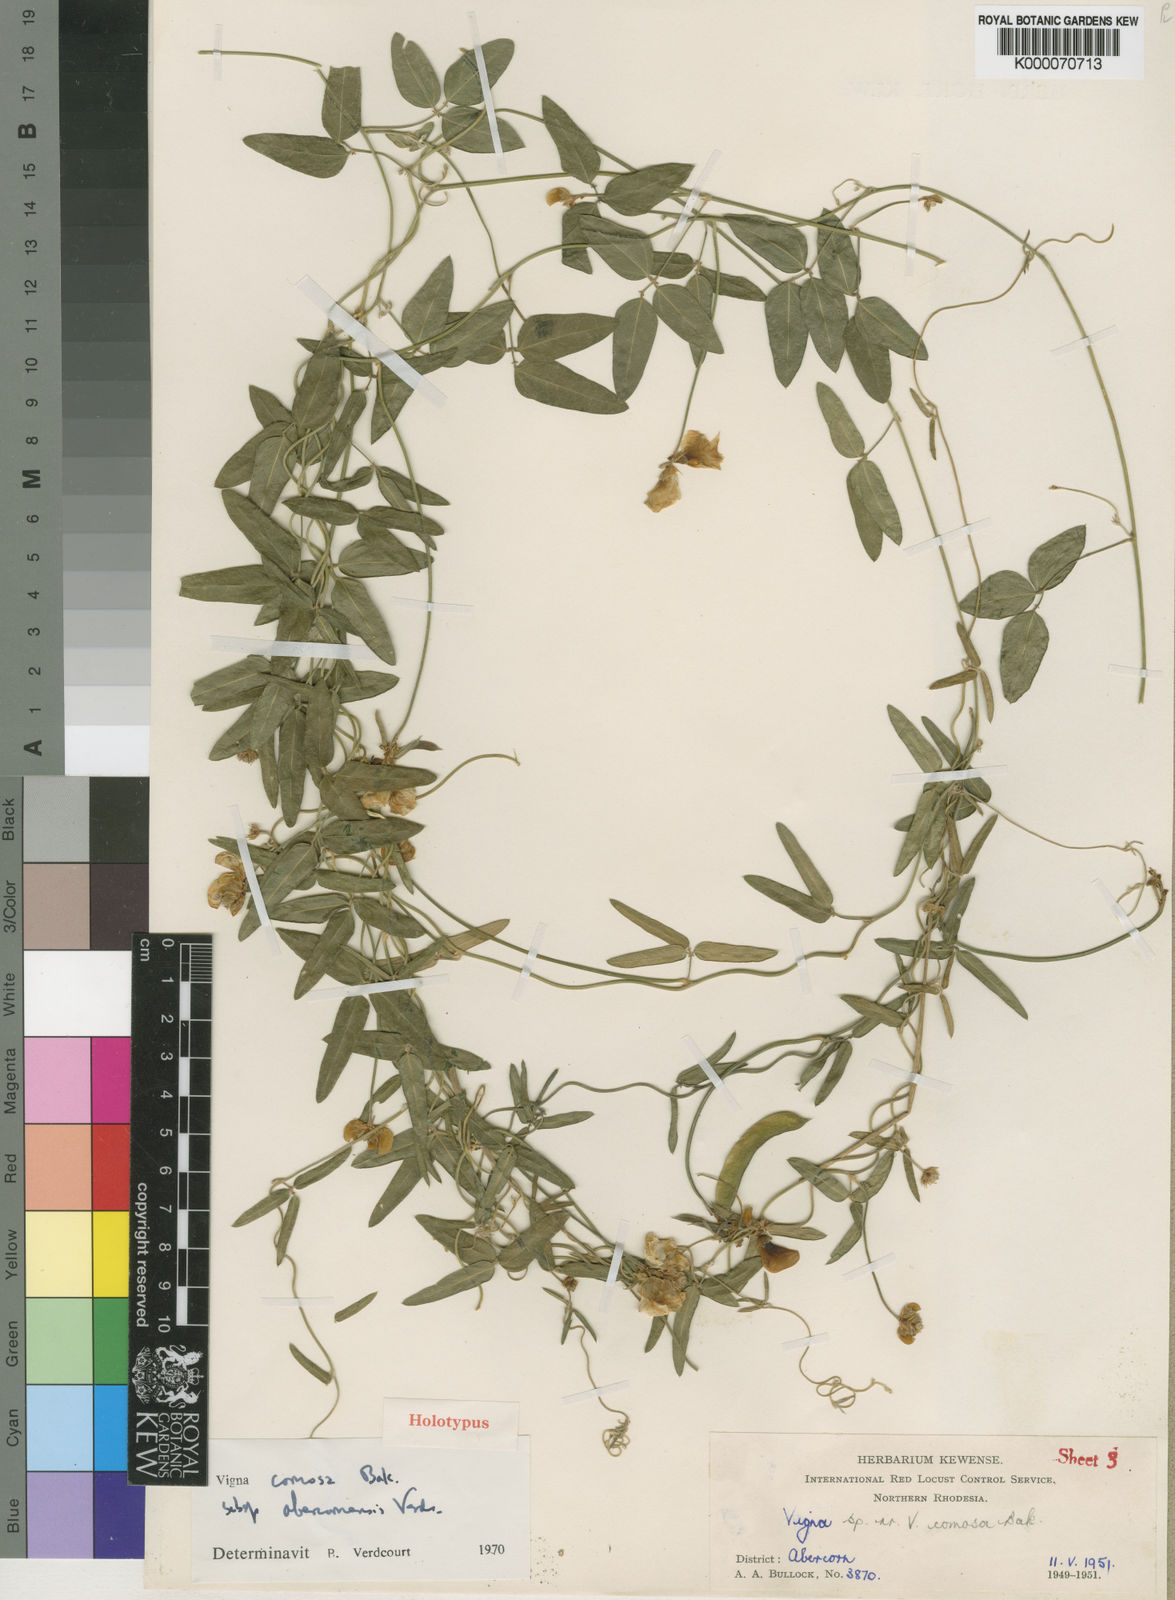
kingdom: Plantae
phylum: Tracheophyta
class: Magnoliopsida
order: Fabales
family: Fabaceae
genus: Vigna
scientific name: Vigna comosa
